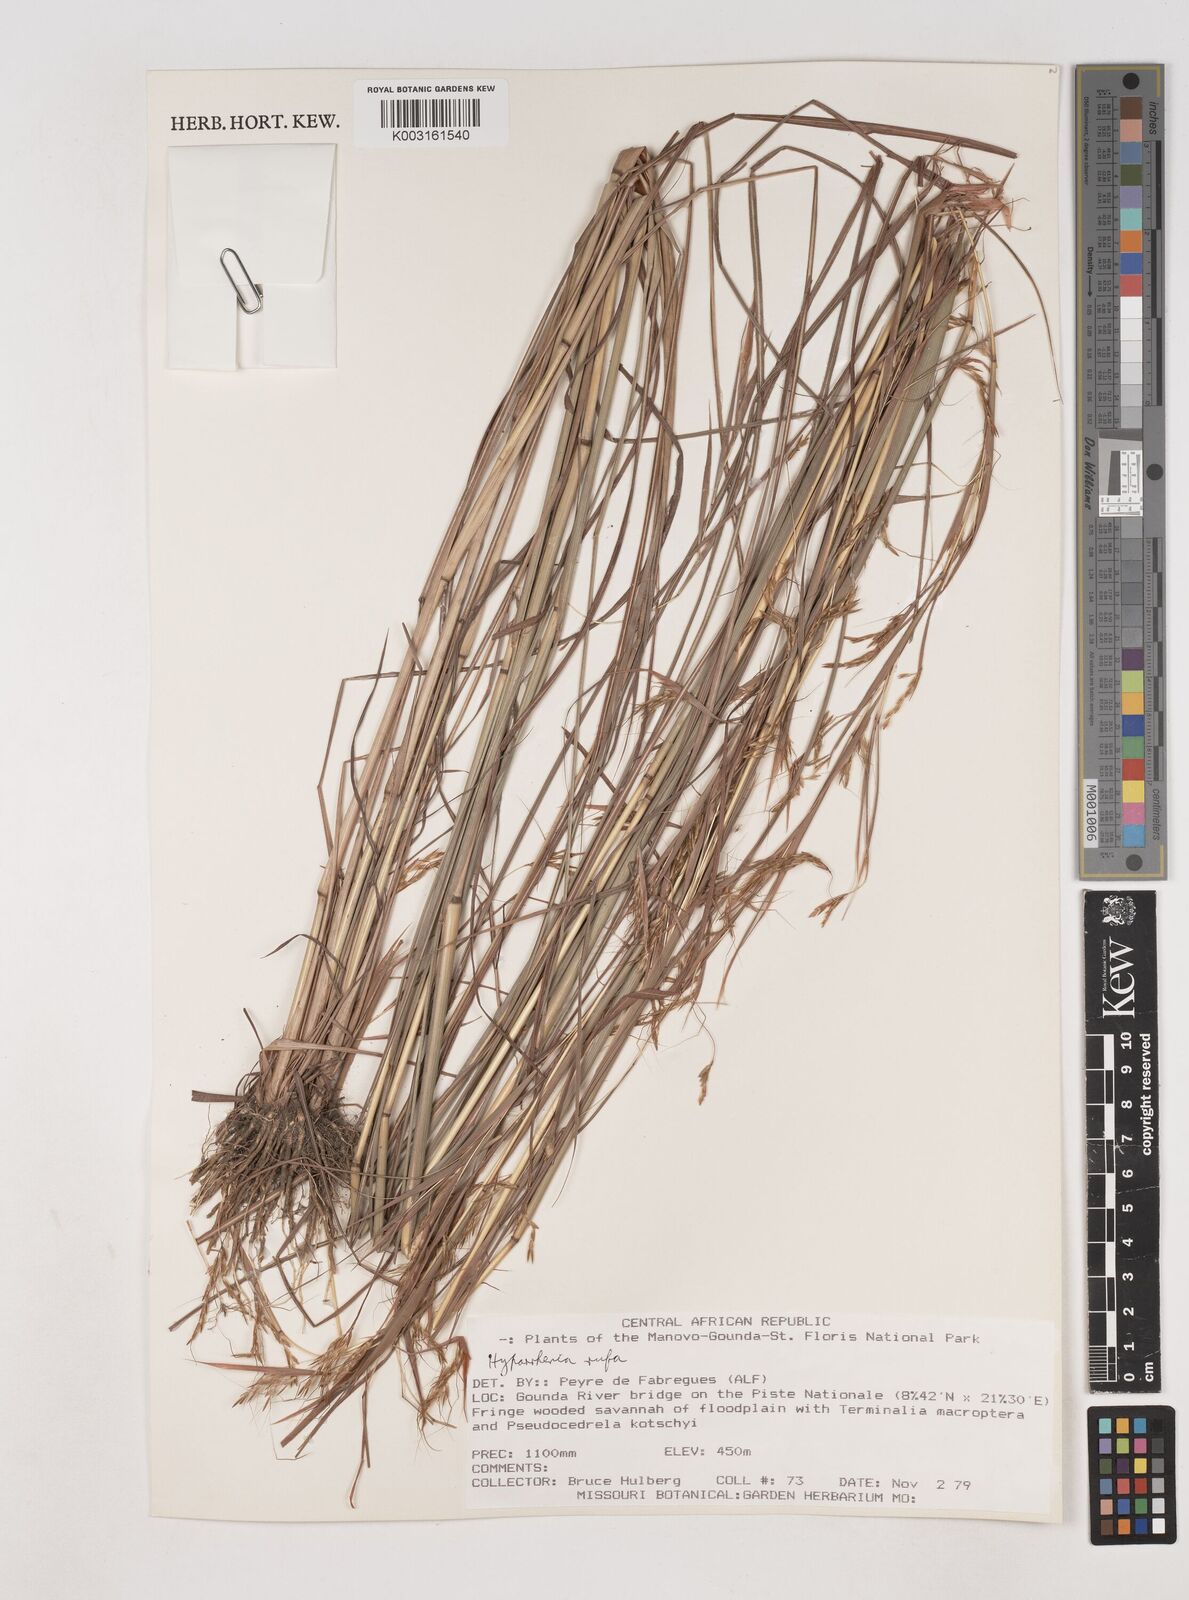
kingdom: Plantae
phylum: Tracheophyta
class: Liliopsida
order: Poales
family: Poaceae
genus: Hyparrhenia
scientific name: Hyparrhenia rufa
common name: Jaraguagrass
